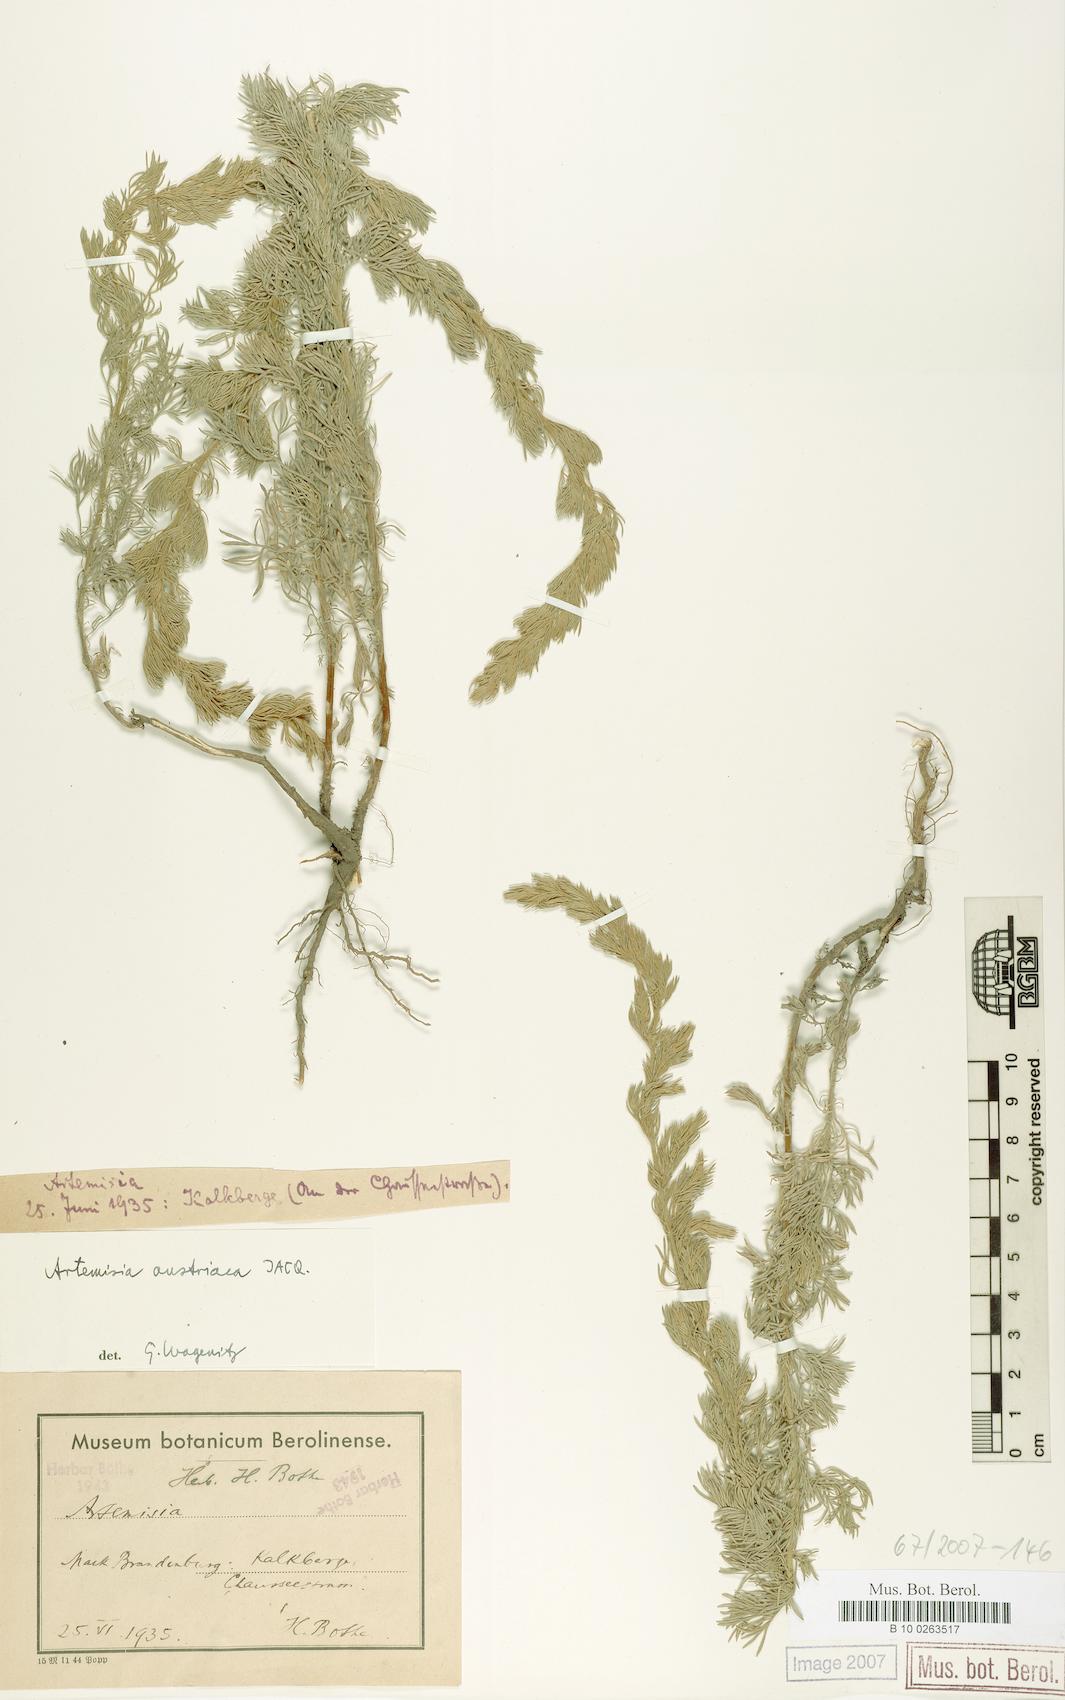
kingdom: Plantae
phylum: Tracheophyta
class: Magnoliopsida
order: Asterales
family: Asteraceae
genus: Artemisia
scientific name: Artemisia austriaca
